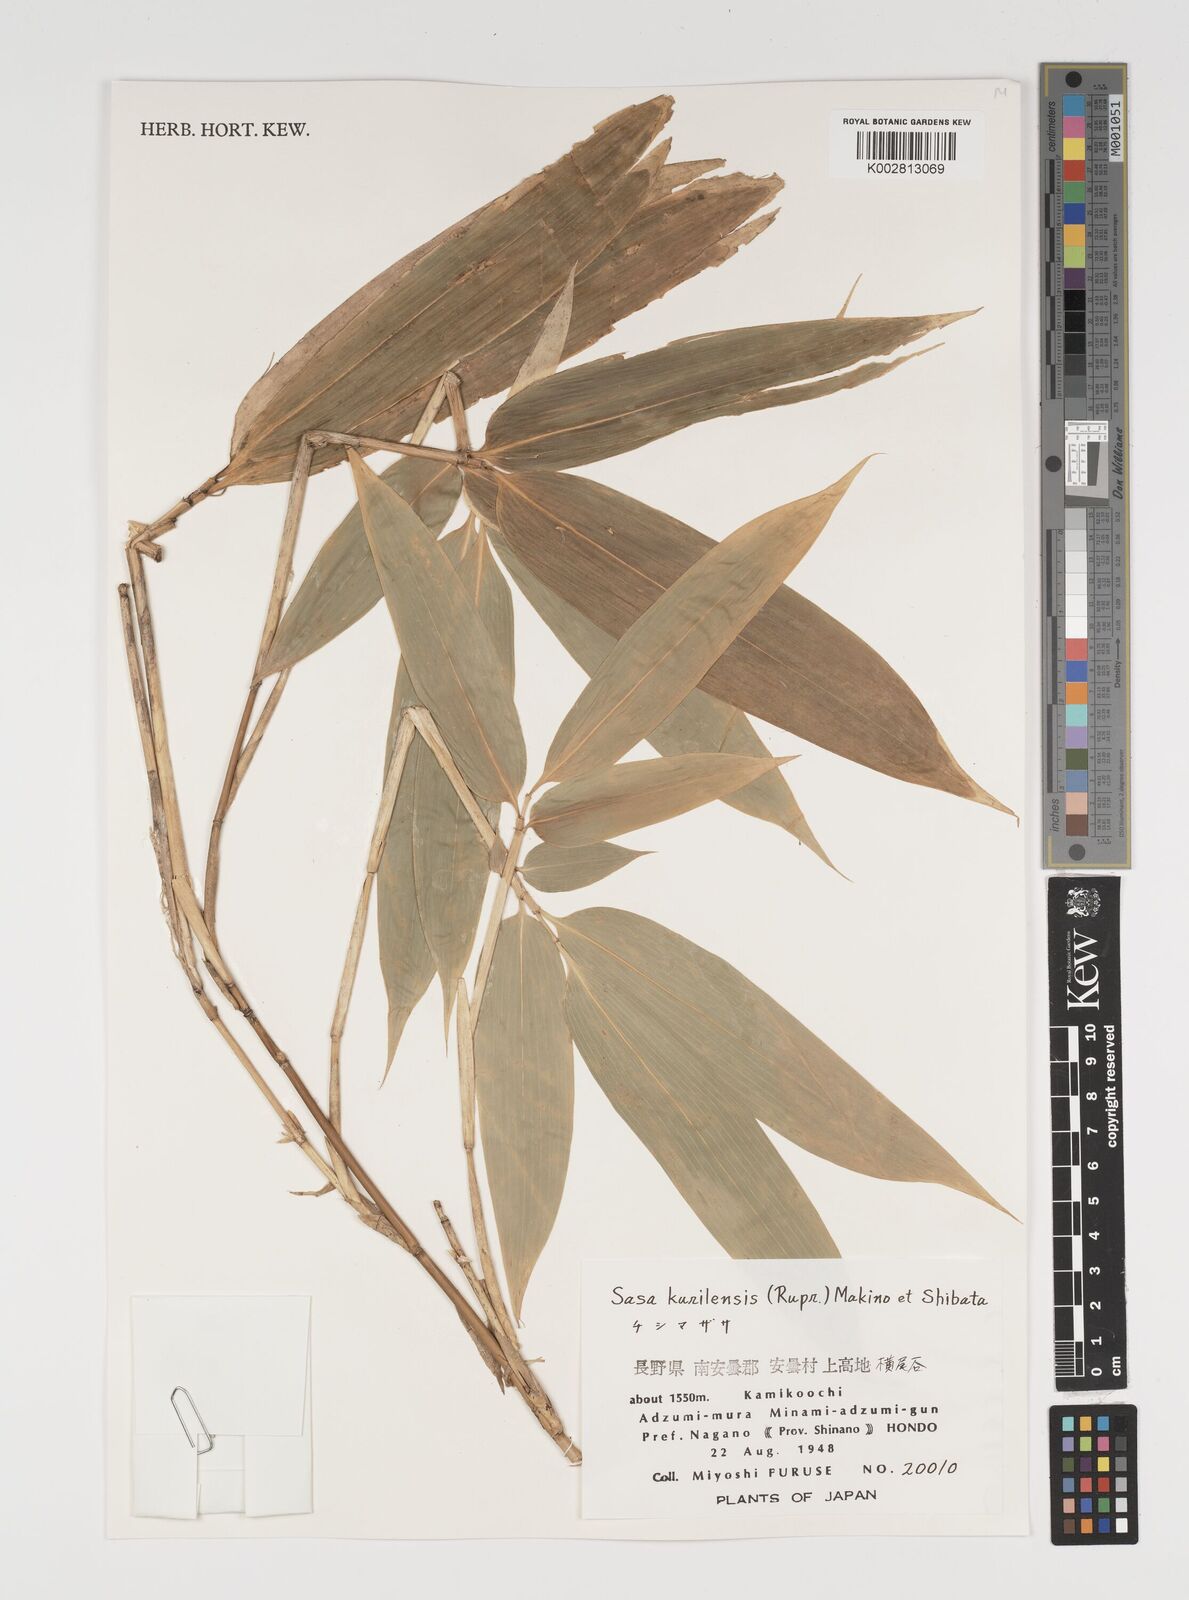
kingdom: Plantae
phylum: Tracheophyta
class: Liliopsida
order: Poales
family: Poaceae
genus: Sasa
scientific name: Sasa kurilensis
